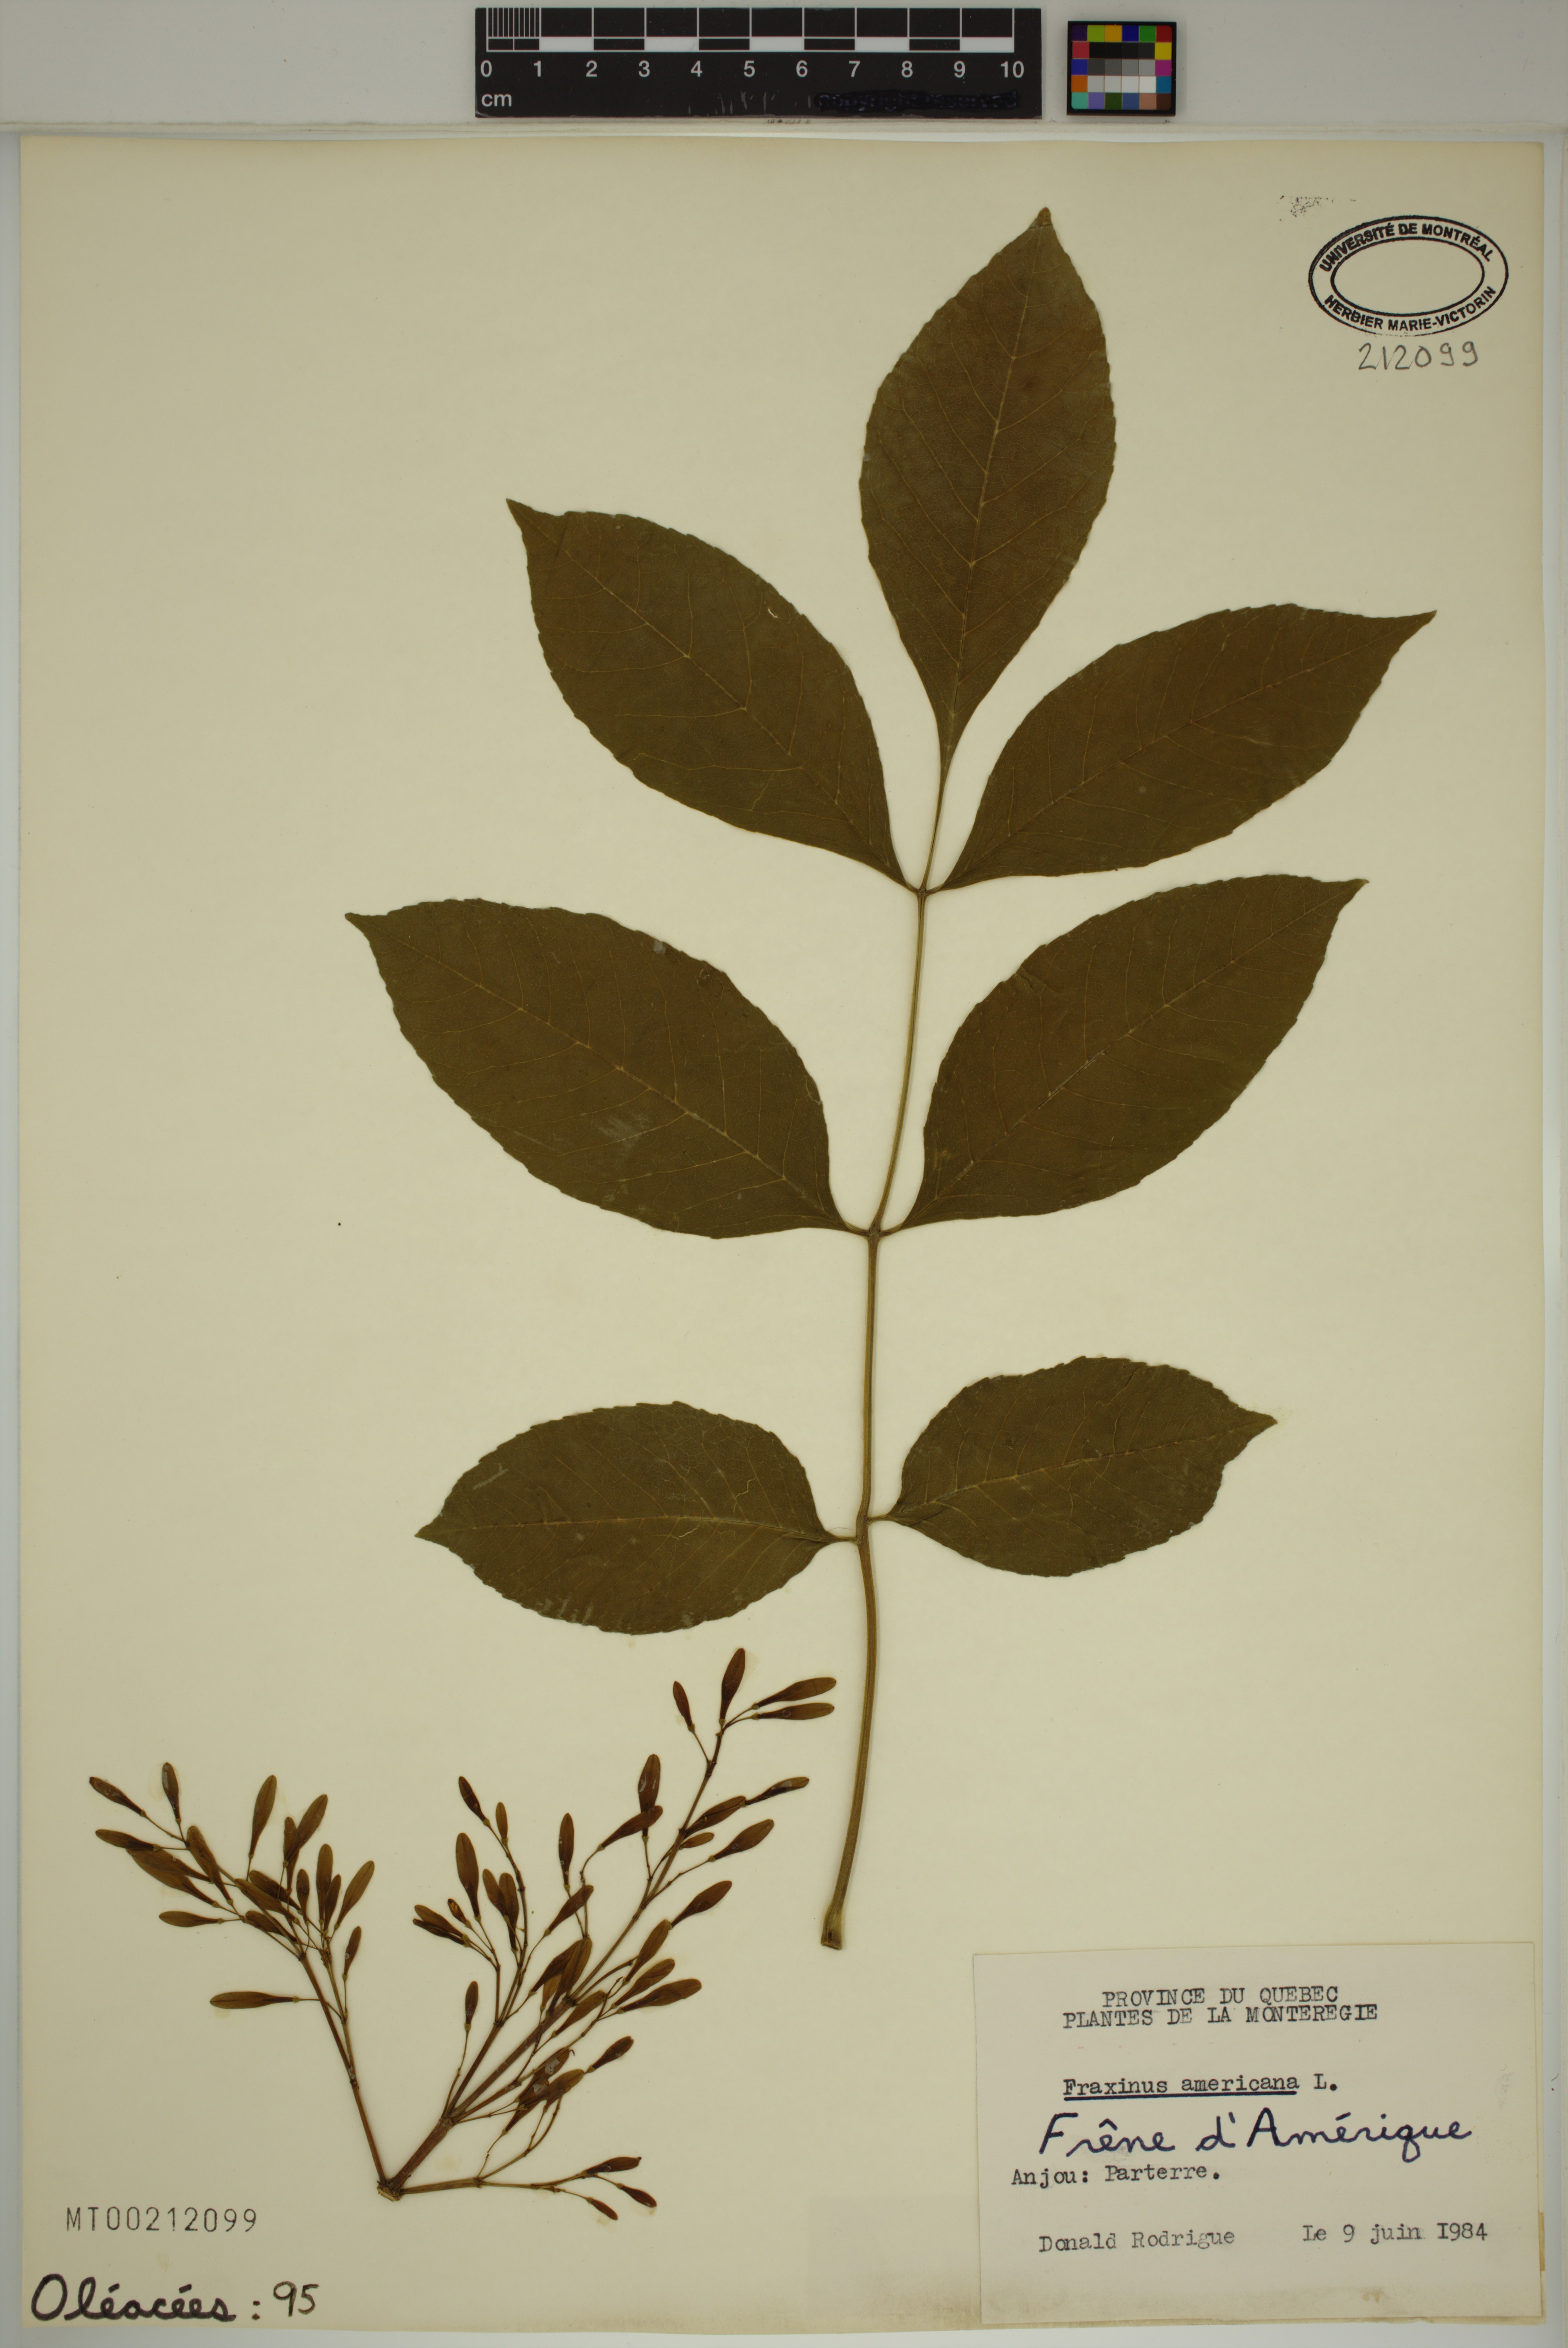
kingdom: Plantae
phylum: Tracheophyta
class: Magnoliopsida
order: Lamiales
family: Oleaceae
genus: Fraxinus
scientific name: Fraxinus americana
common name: White ash
